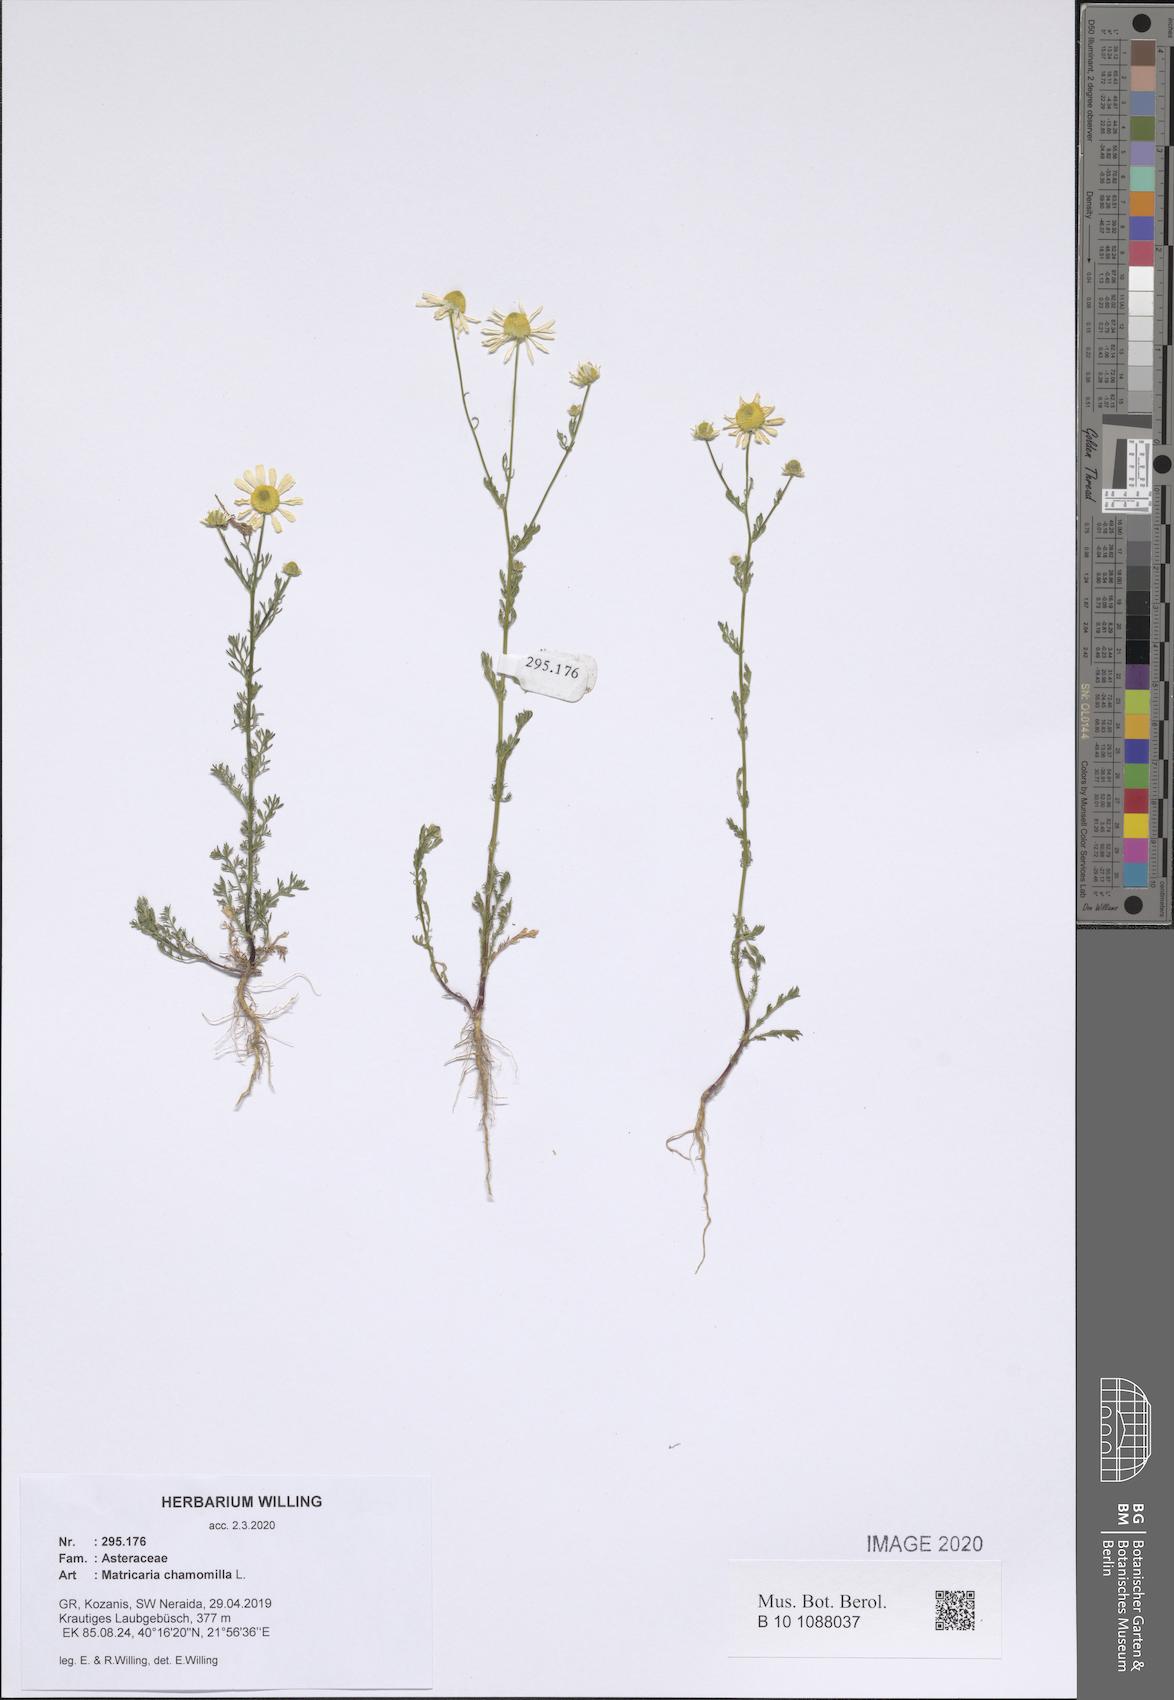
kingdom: Plantae
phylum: Tracheophyta
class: Magnoliopsida
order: Asterales
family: Asteraceae
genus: Matricaria
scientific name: Matricaria chamomilla
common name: Scented mayweed
